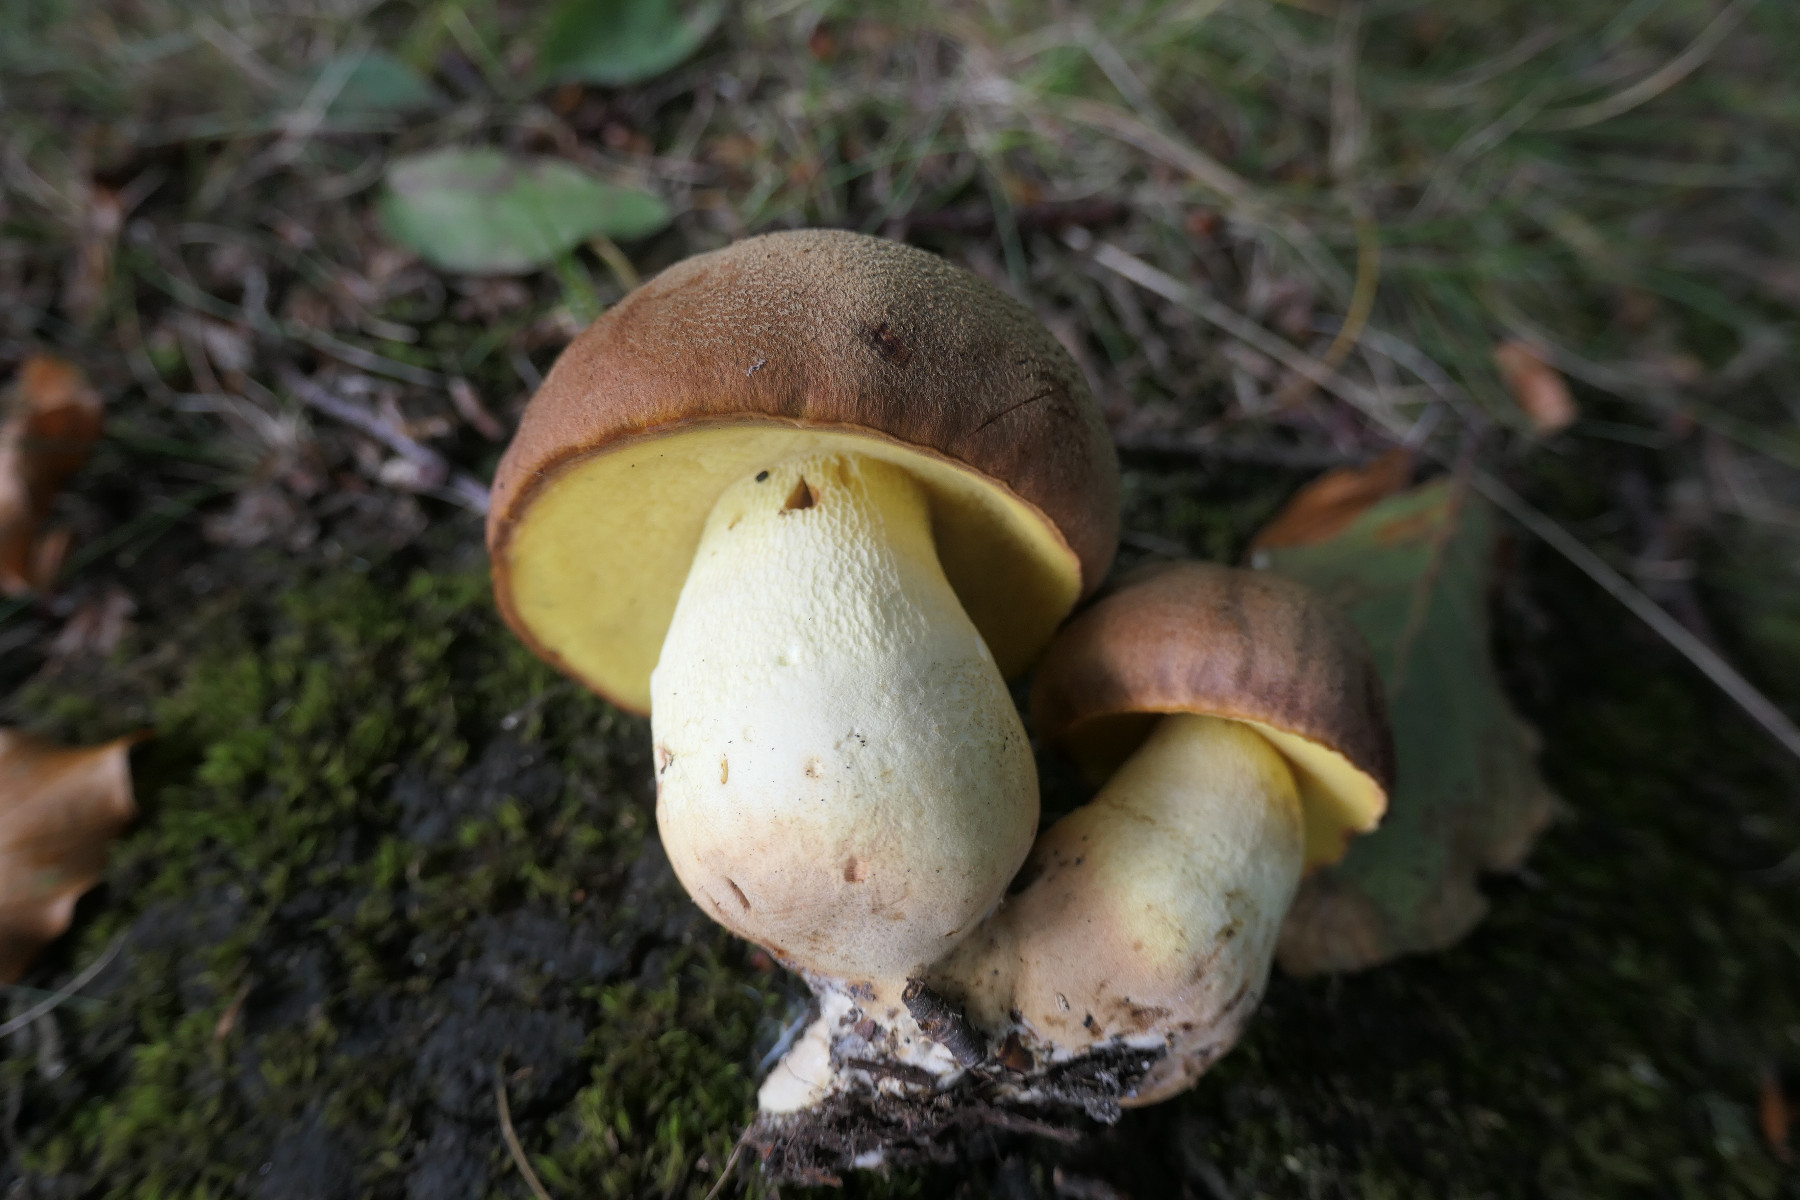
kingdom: Fungi
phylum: Basidiomycota
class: Agaricomycetes
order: Boletales
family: Boletaceae
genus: Butyriboletus
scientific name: Butyriboletus appendiculatus
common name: tenstokket rørhat
